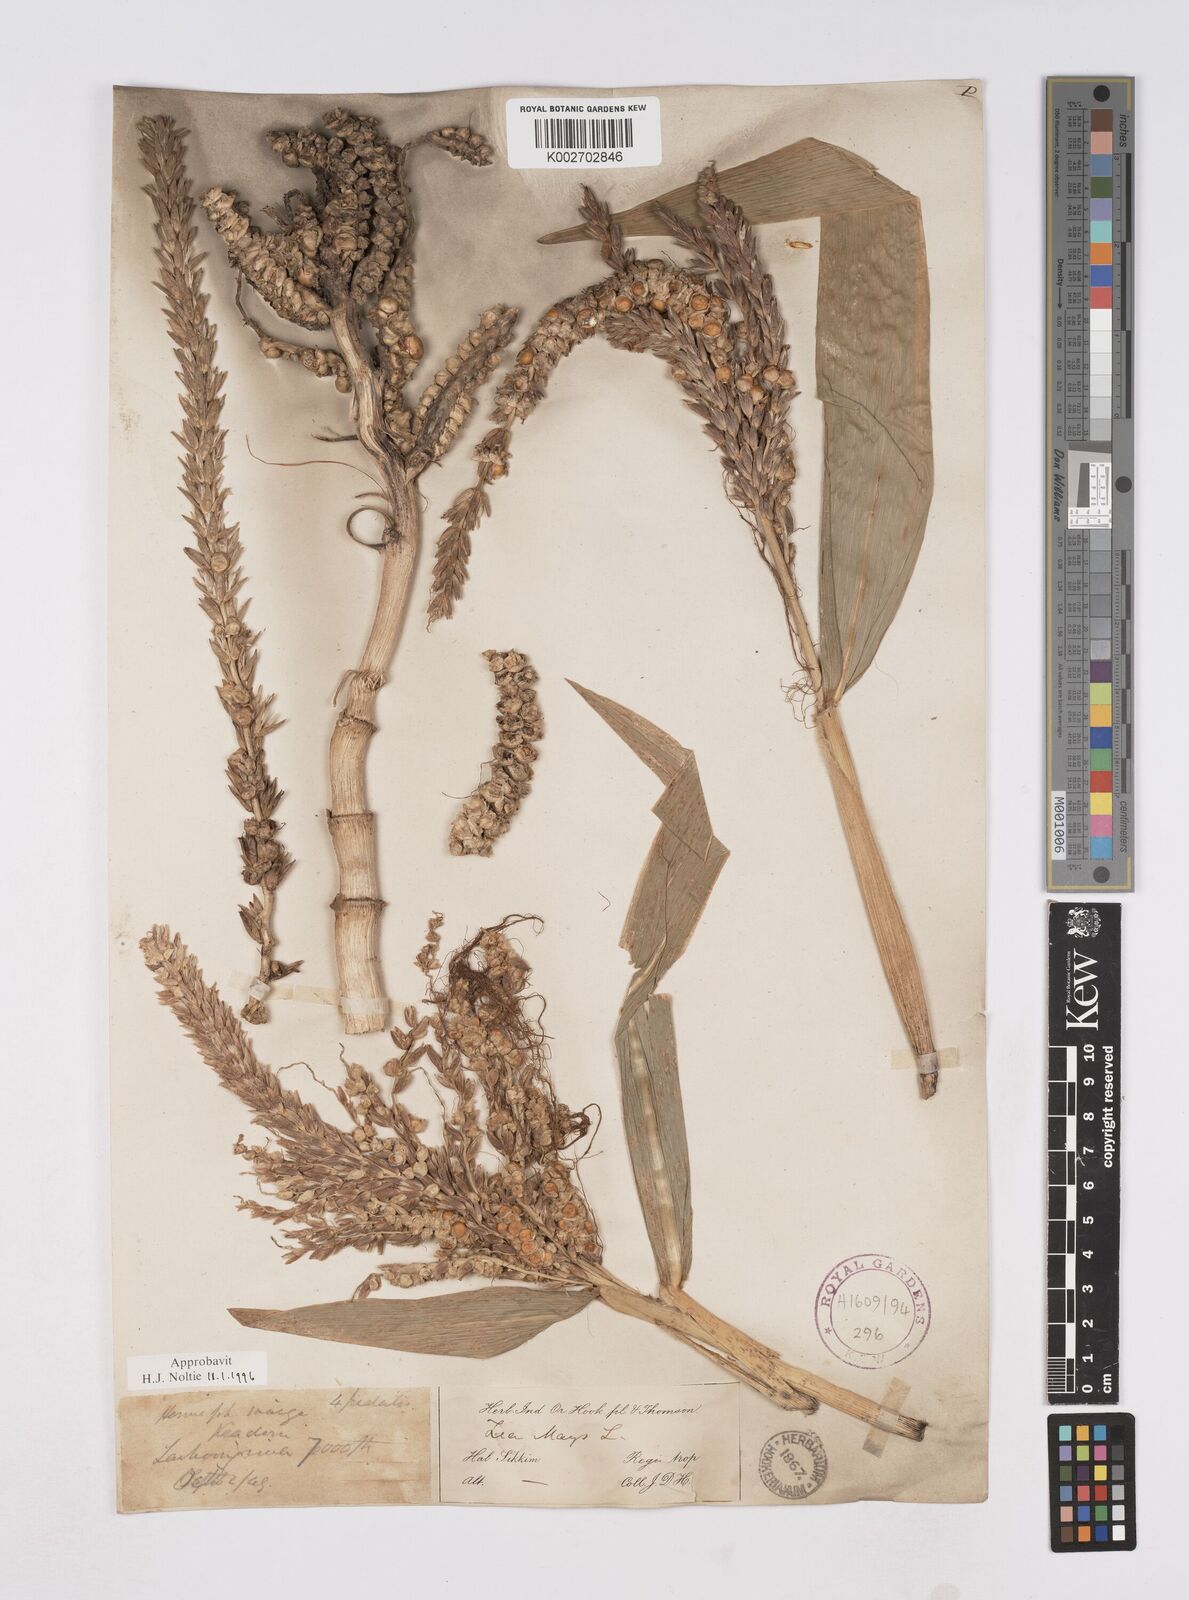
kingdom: Plantae
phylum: Tracheophyta
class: Liliopsida
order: Poales
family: Poaceae
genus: Zea
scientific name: Zea mays
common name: Maize
